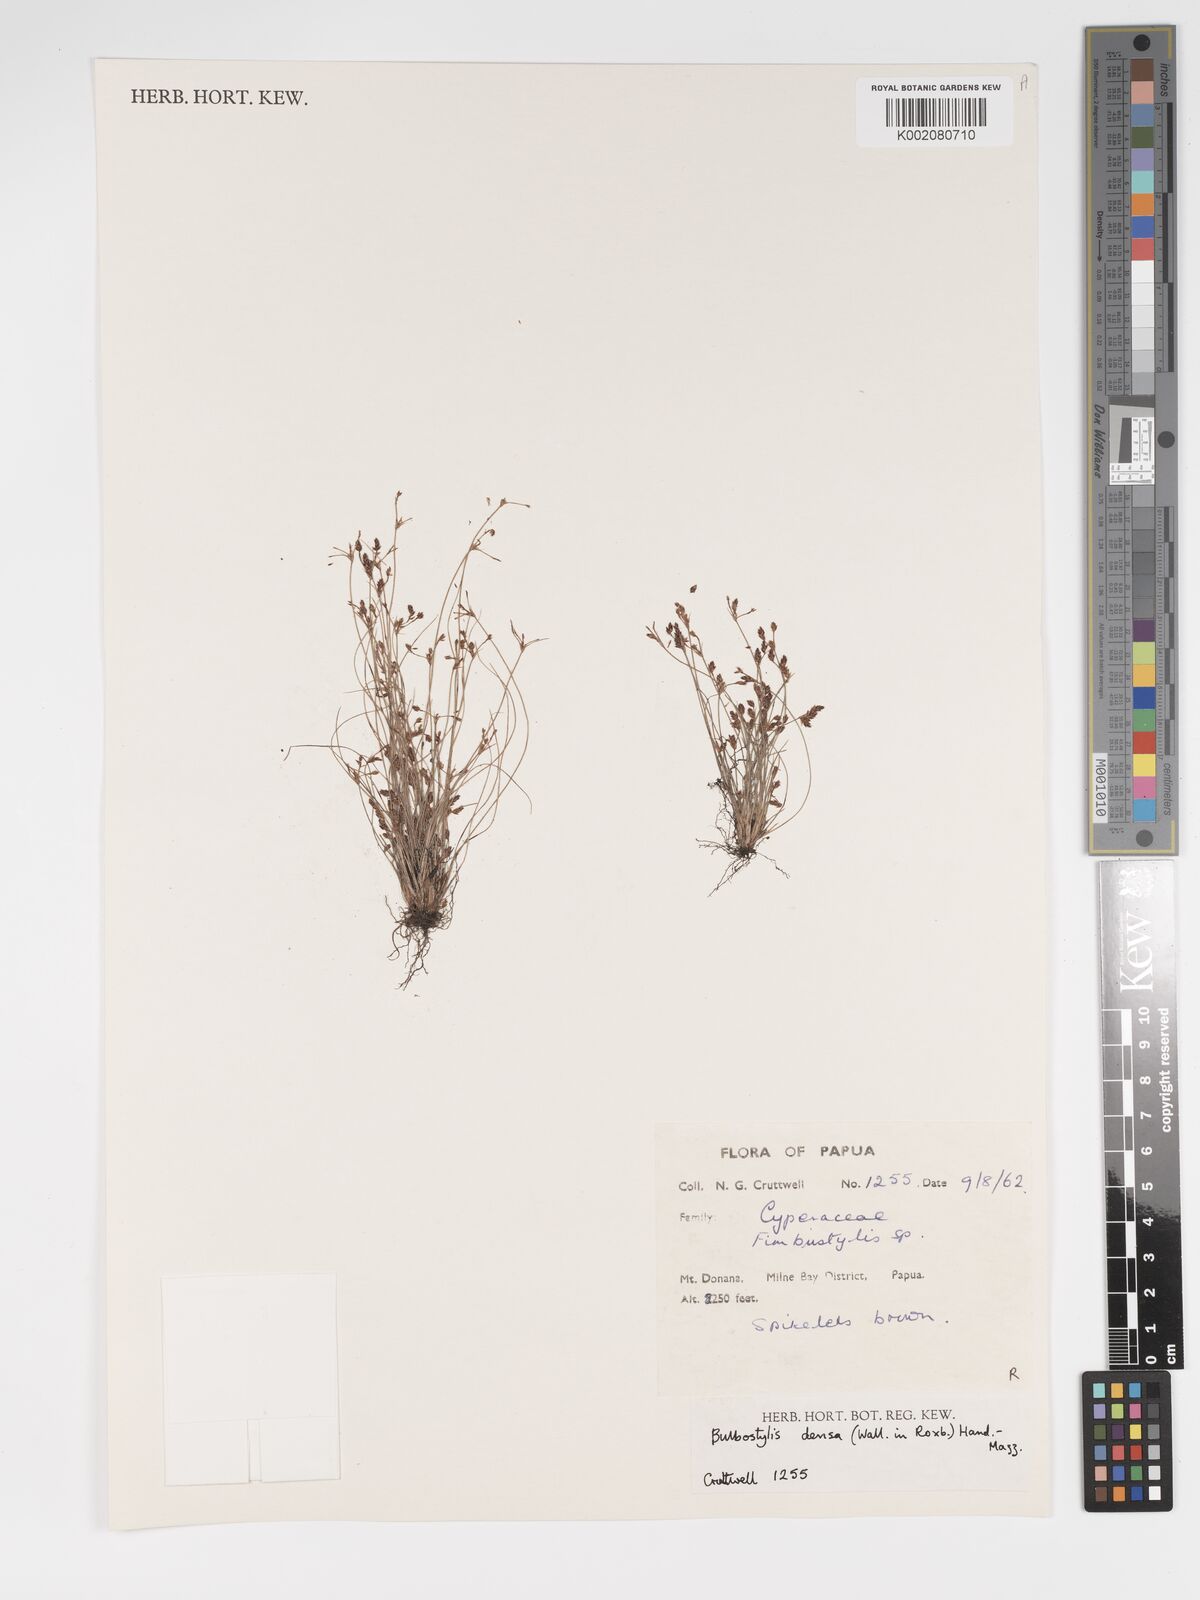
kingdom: Plantae
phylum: Tracheophyta
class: Liliopsida
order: Poales
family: Cyperaceae
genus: Bulbostylis
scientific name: Bulbostylis densa
